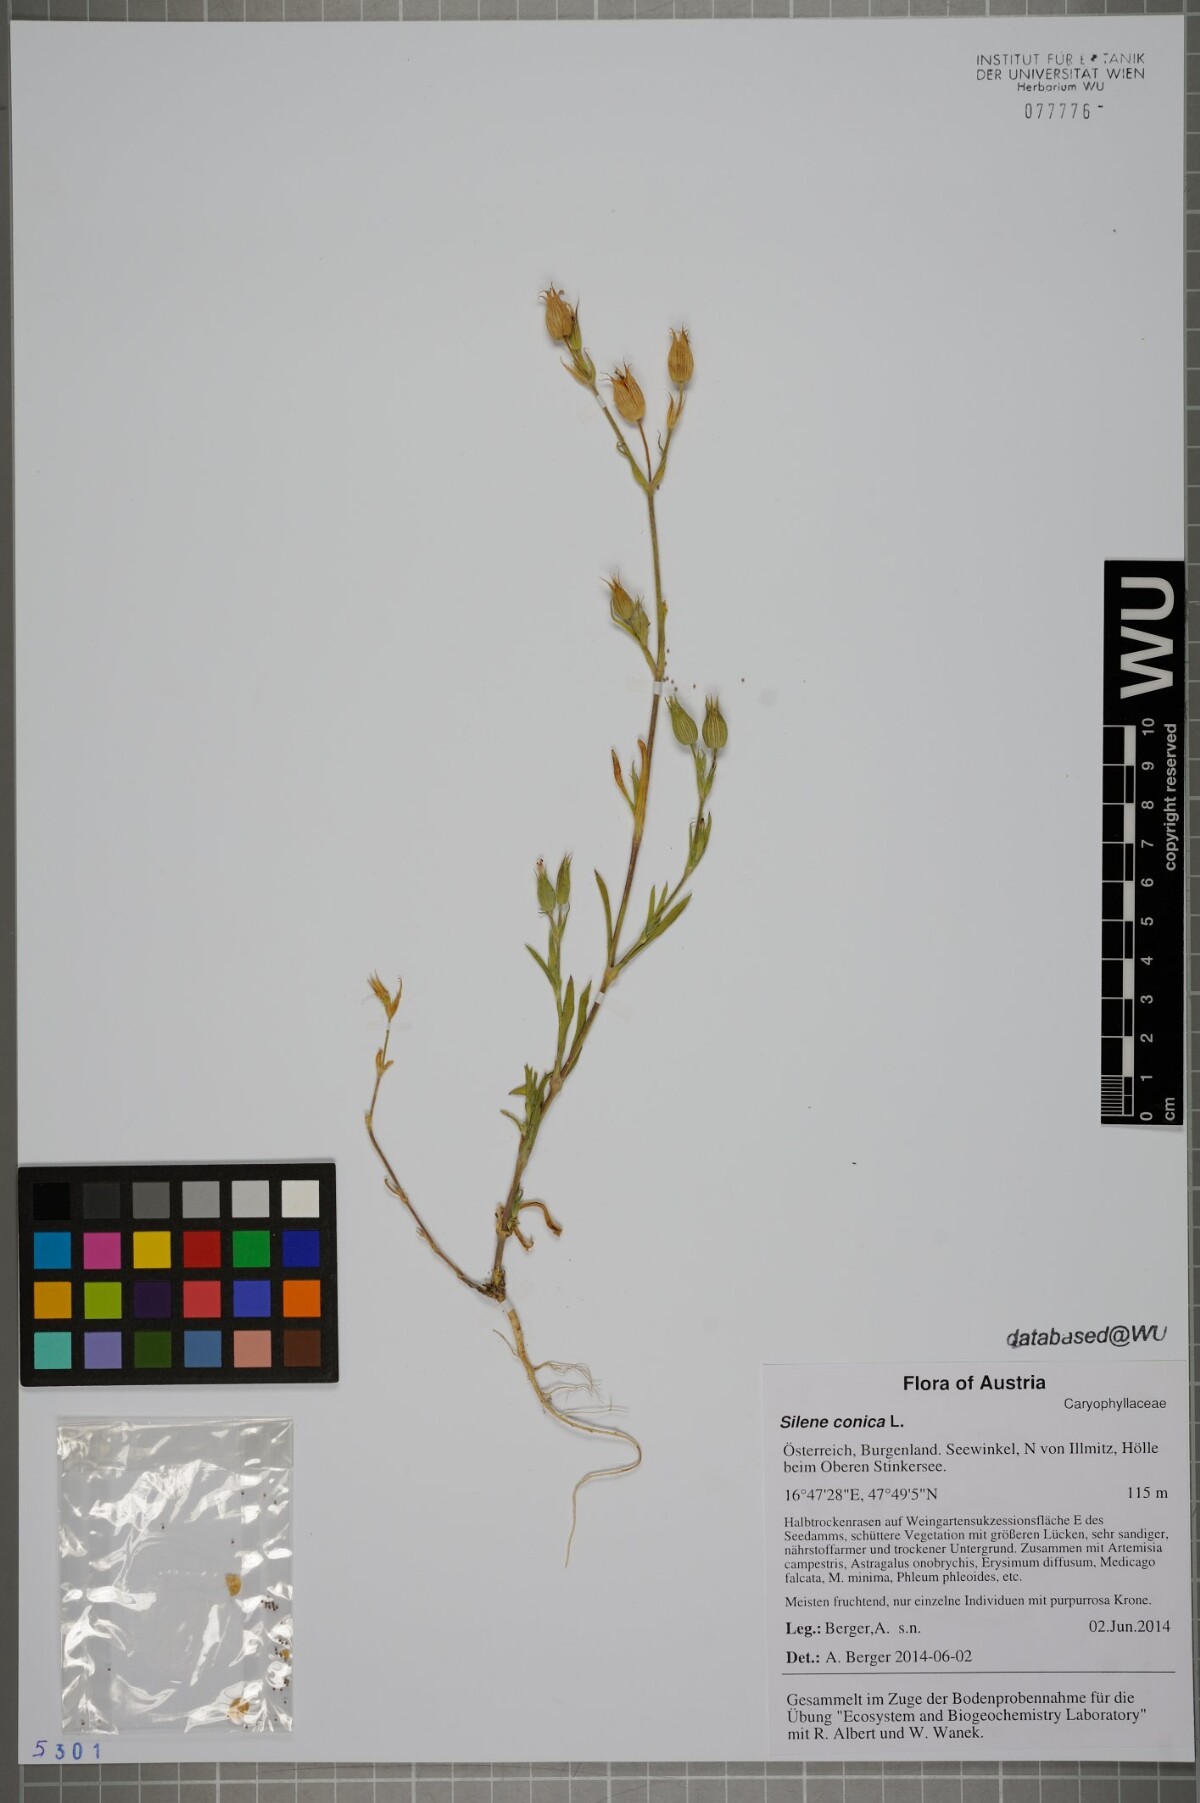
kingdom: Plantae
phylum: Tracheophyta
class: Magnoliopsida
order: Caryophyllales
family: Caryophyllaceae
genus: Silene
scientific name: Silene conica
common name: Sand catchfly
